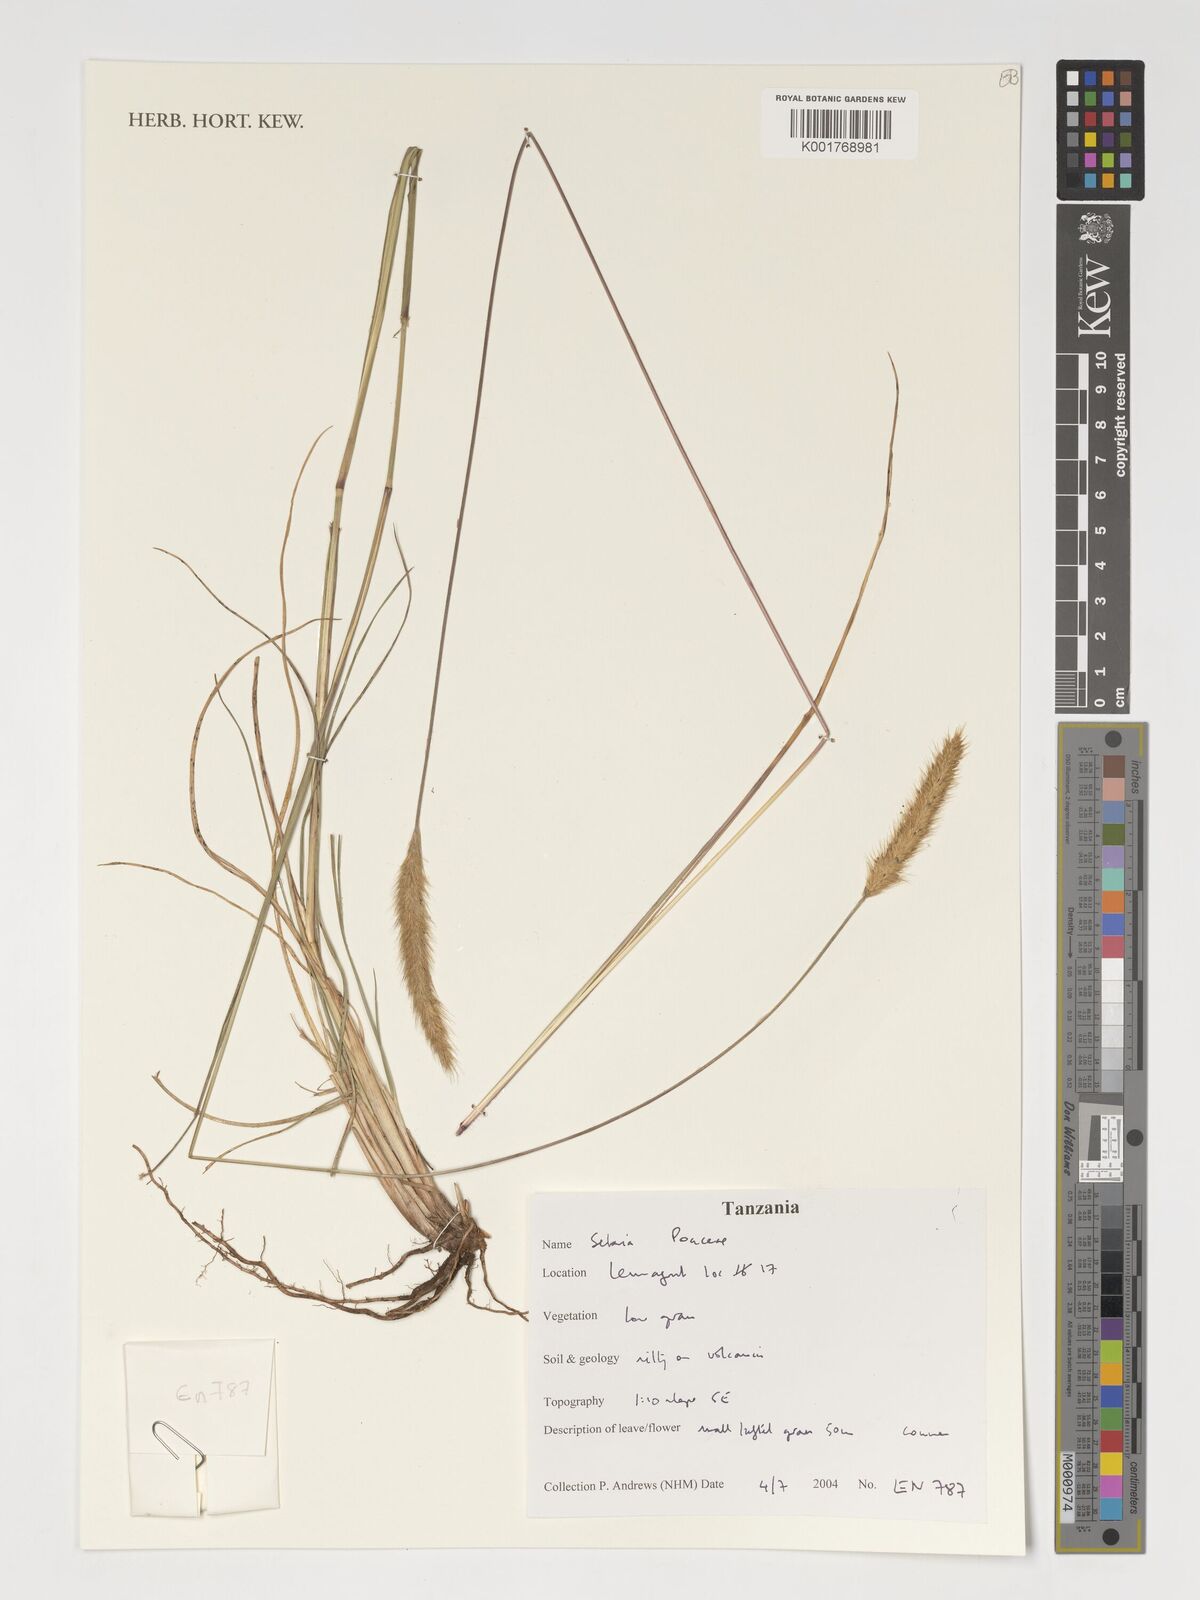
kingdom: Plantae
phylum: Tracheophyta
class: Liliopsida
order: Poales
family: Poaceae
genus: Setaria
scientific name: Setaria
